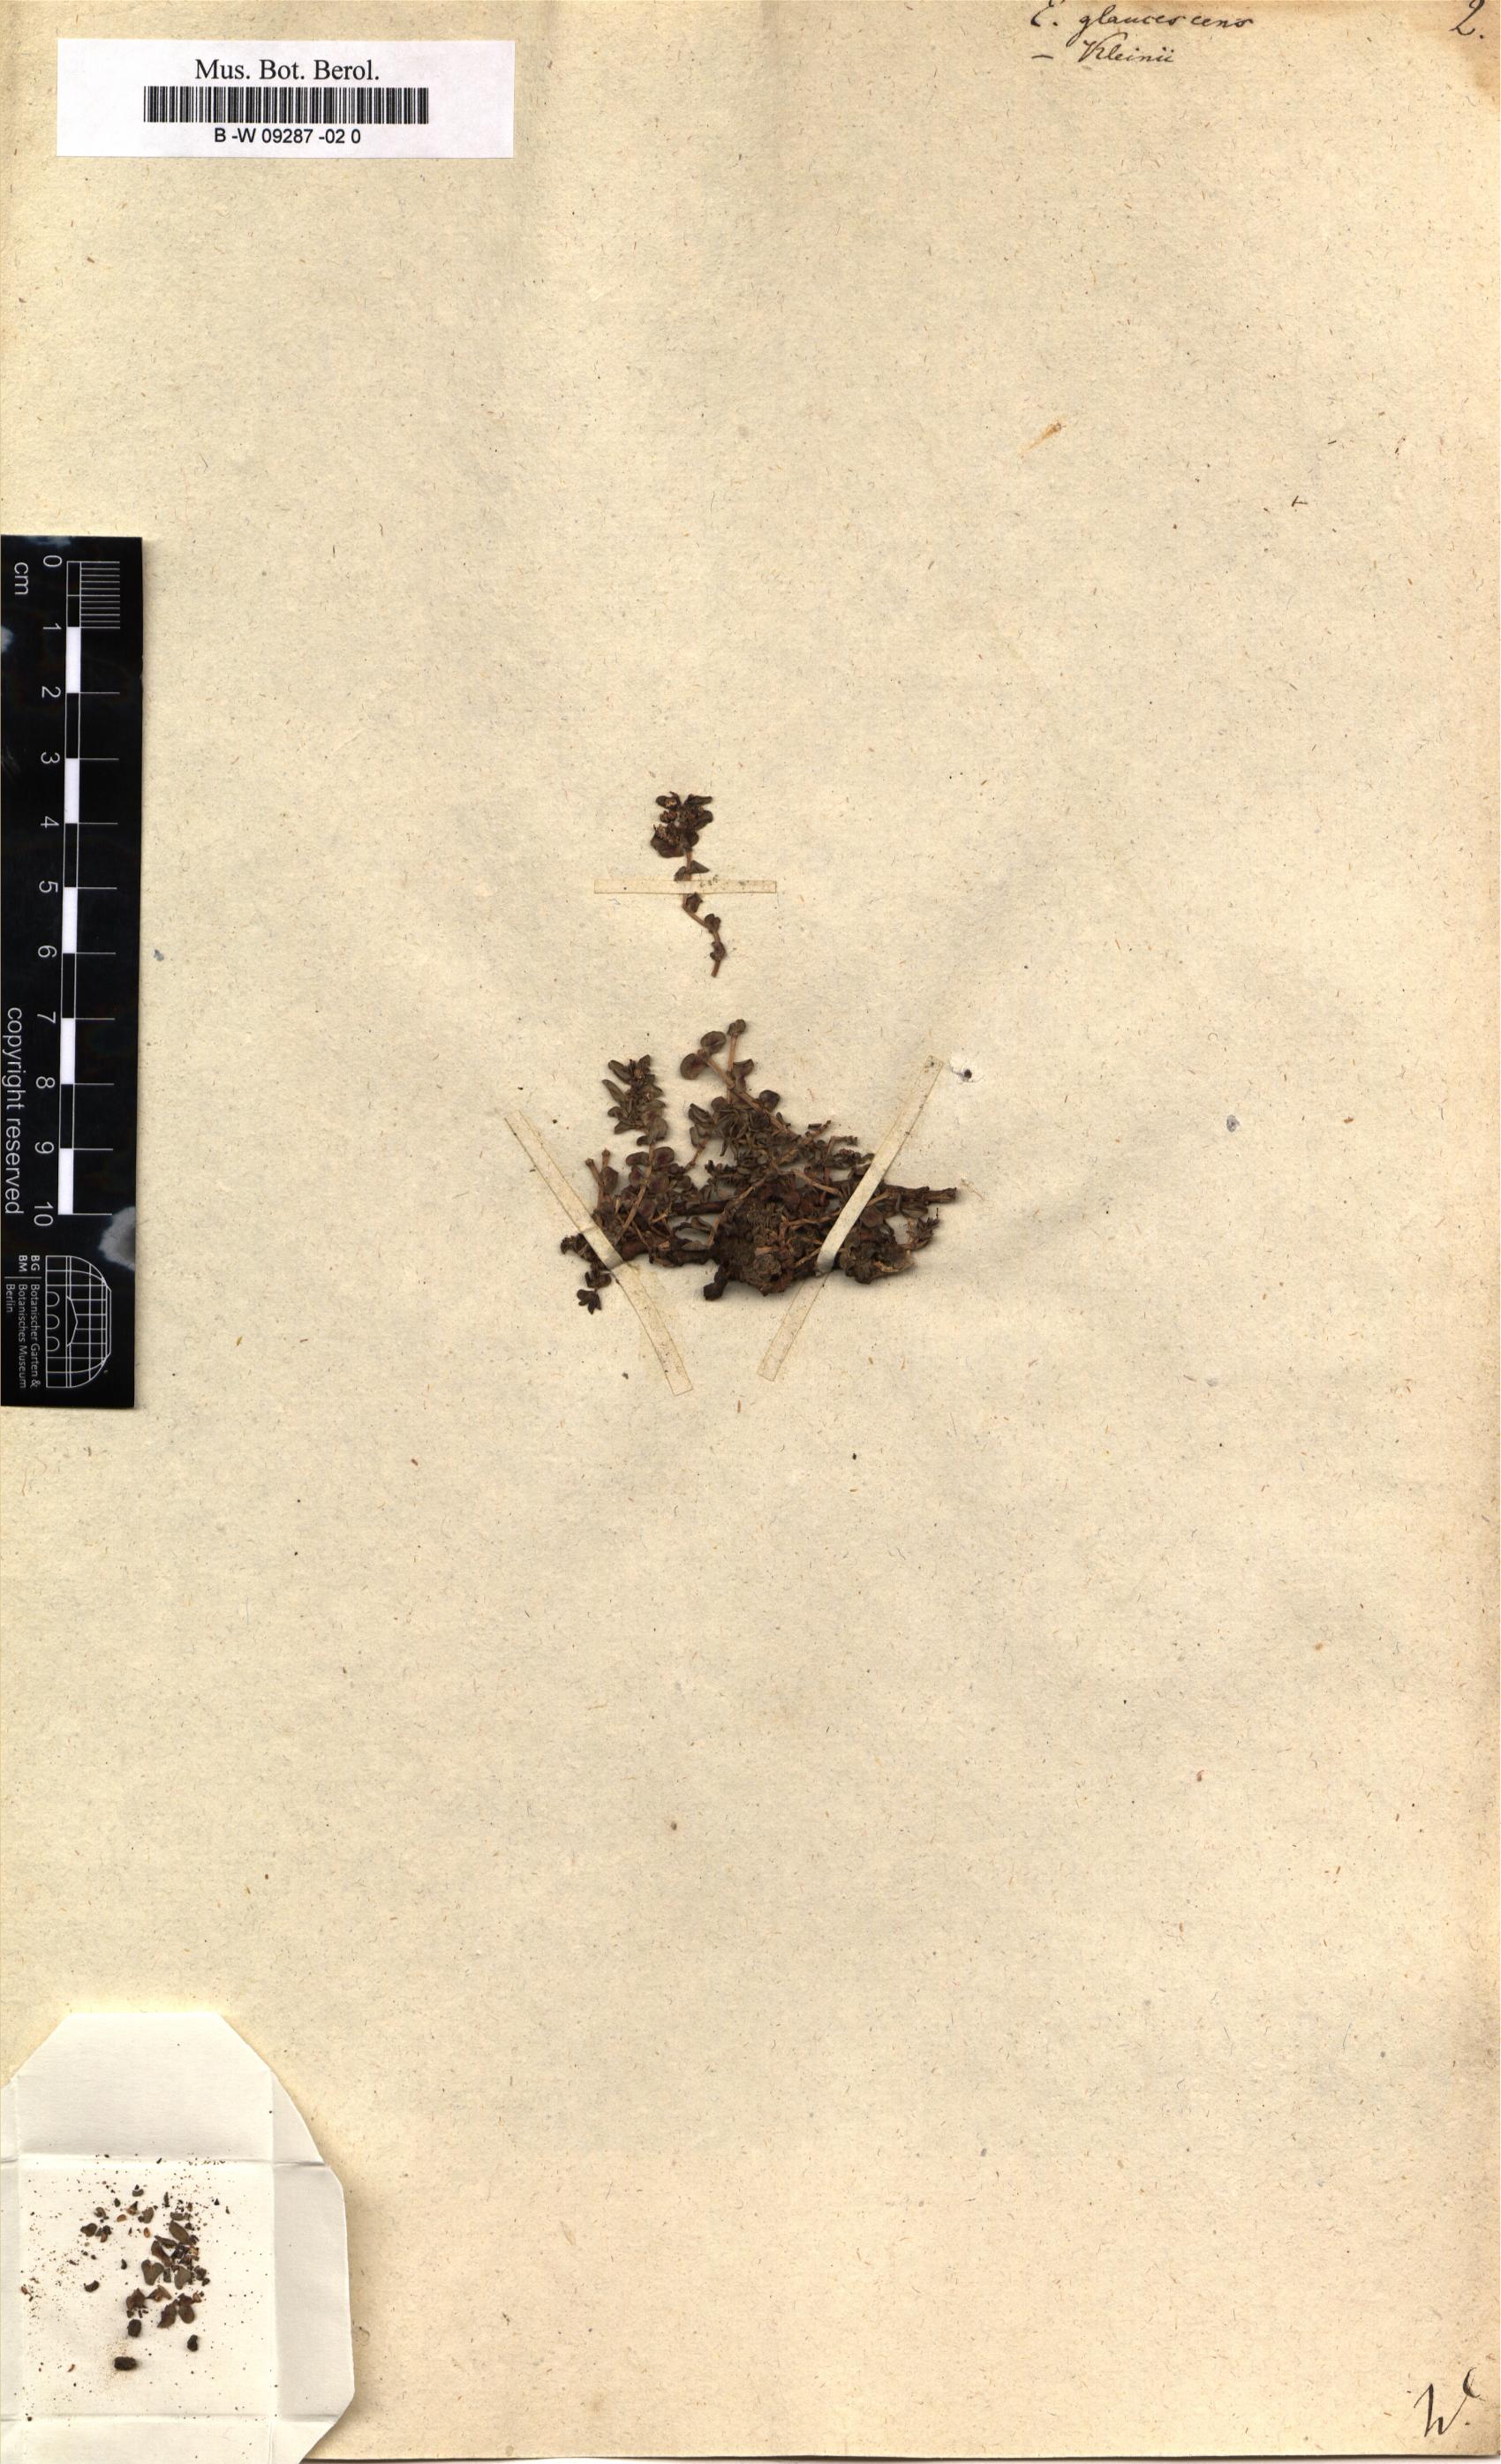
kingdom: Plantae
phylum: Tracheophyta
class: Magnoliopsida
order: Malpighiales
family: Euphorbiaceae
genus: Euphorbia
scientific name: Euphorbia glaucescens
